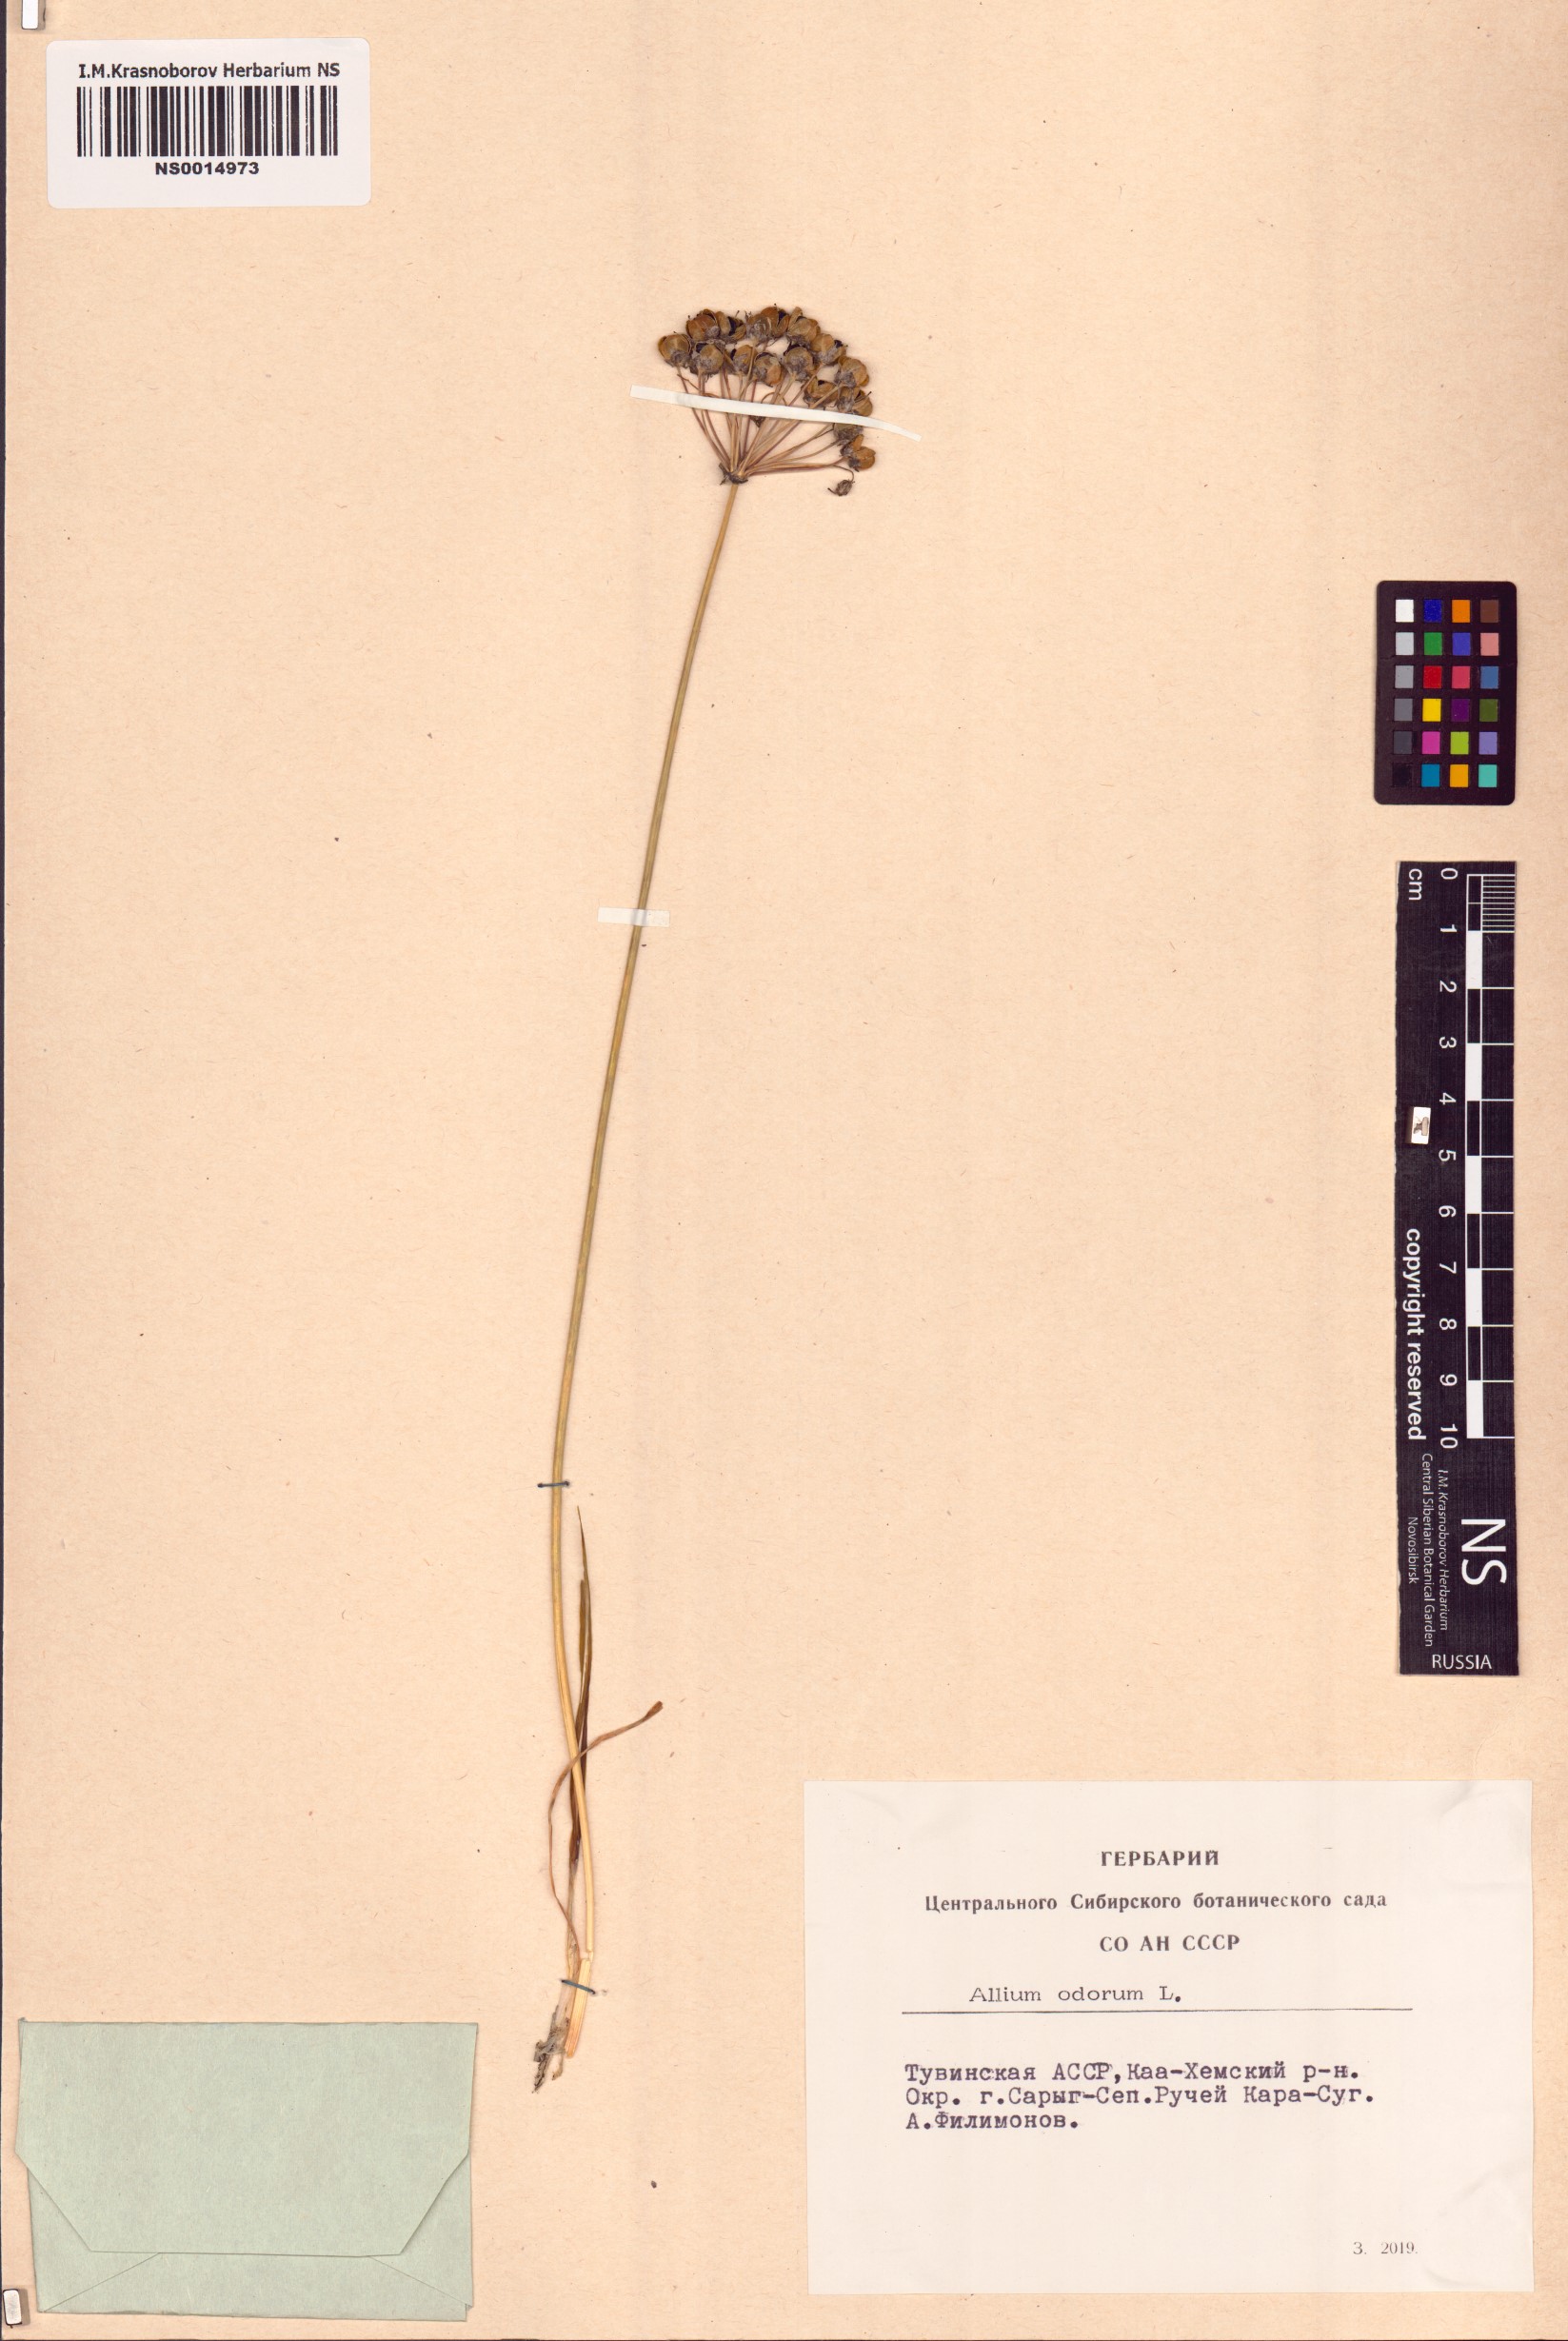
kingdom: Plantae
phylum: Tracheophyta
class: Liliopsida
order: Asparagales
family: Amaryllidaceae
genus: Allium
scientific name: Allium ramosum
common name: Fragrant garlic
